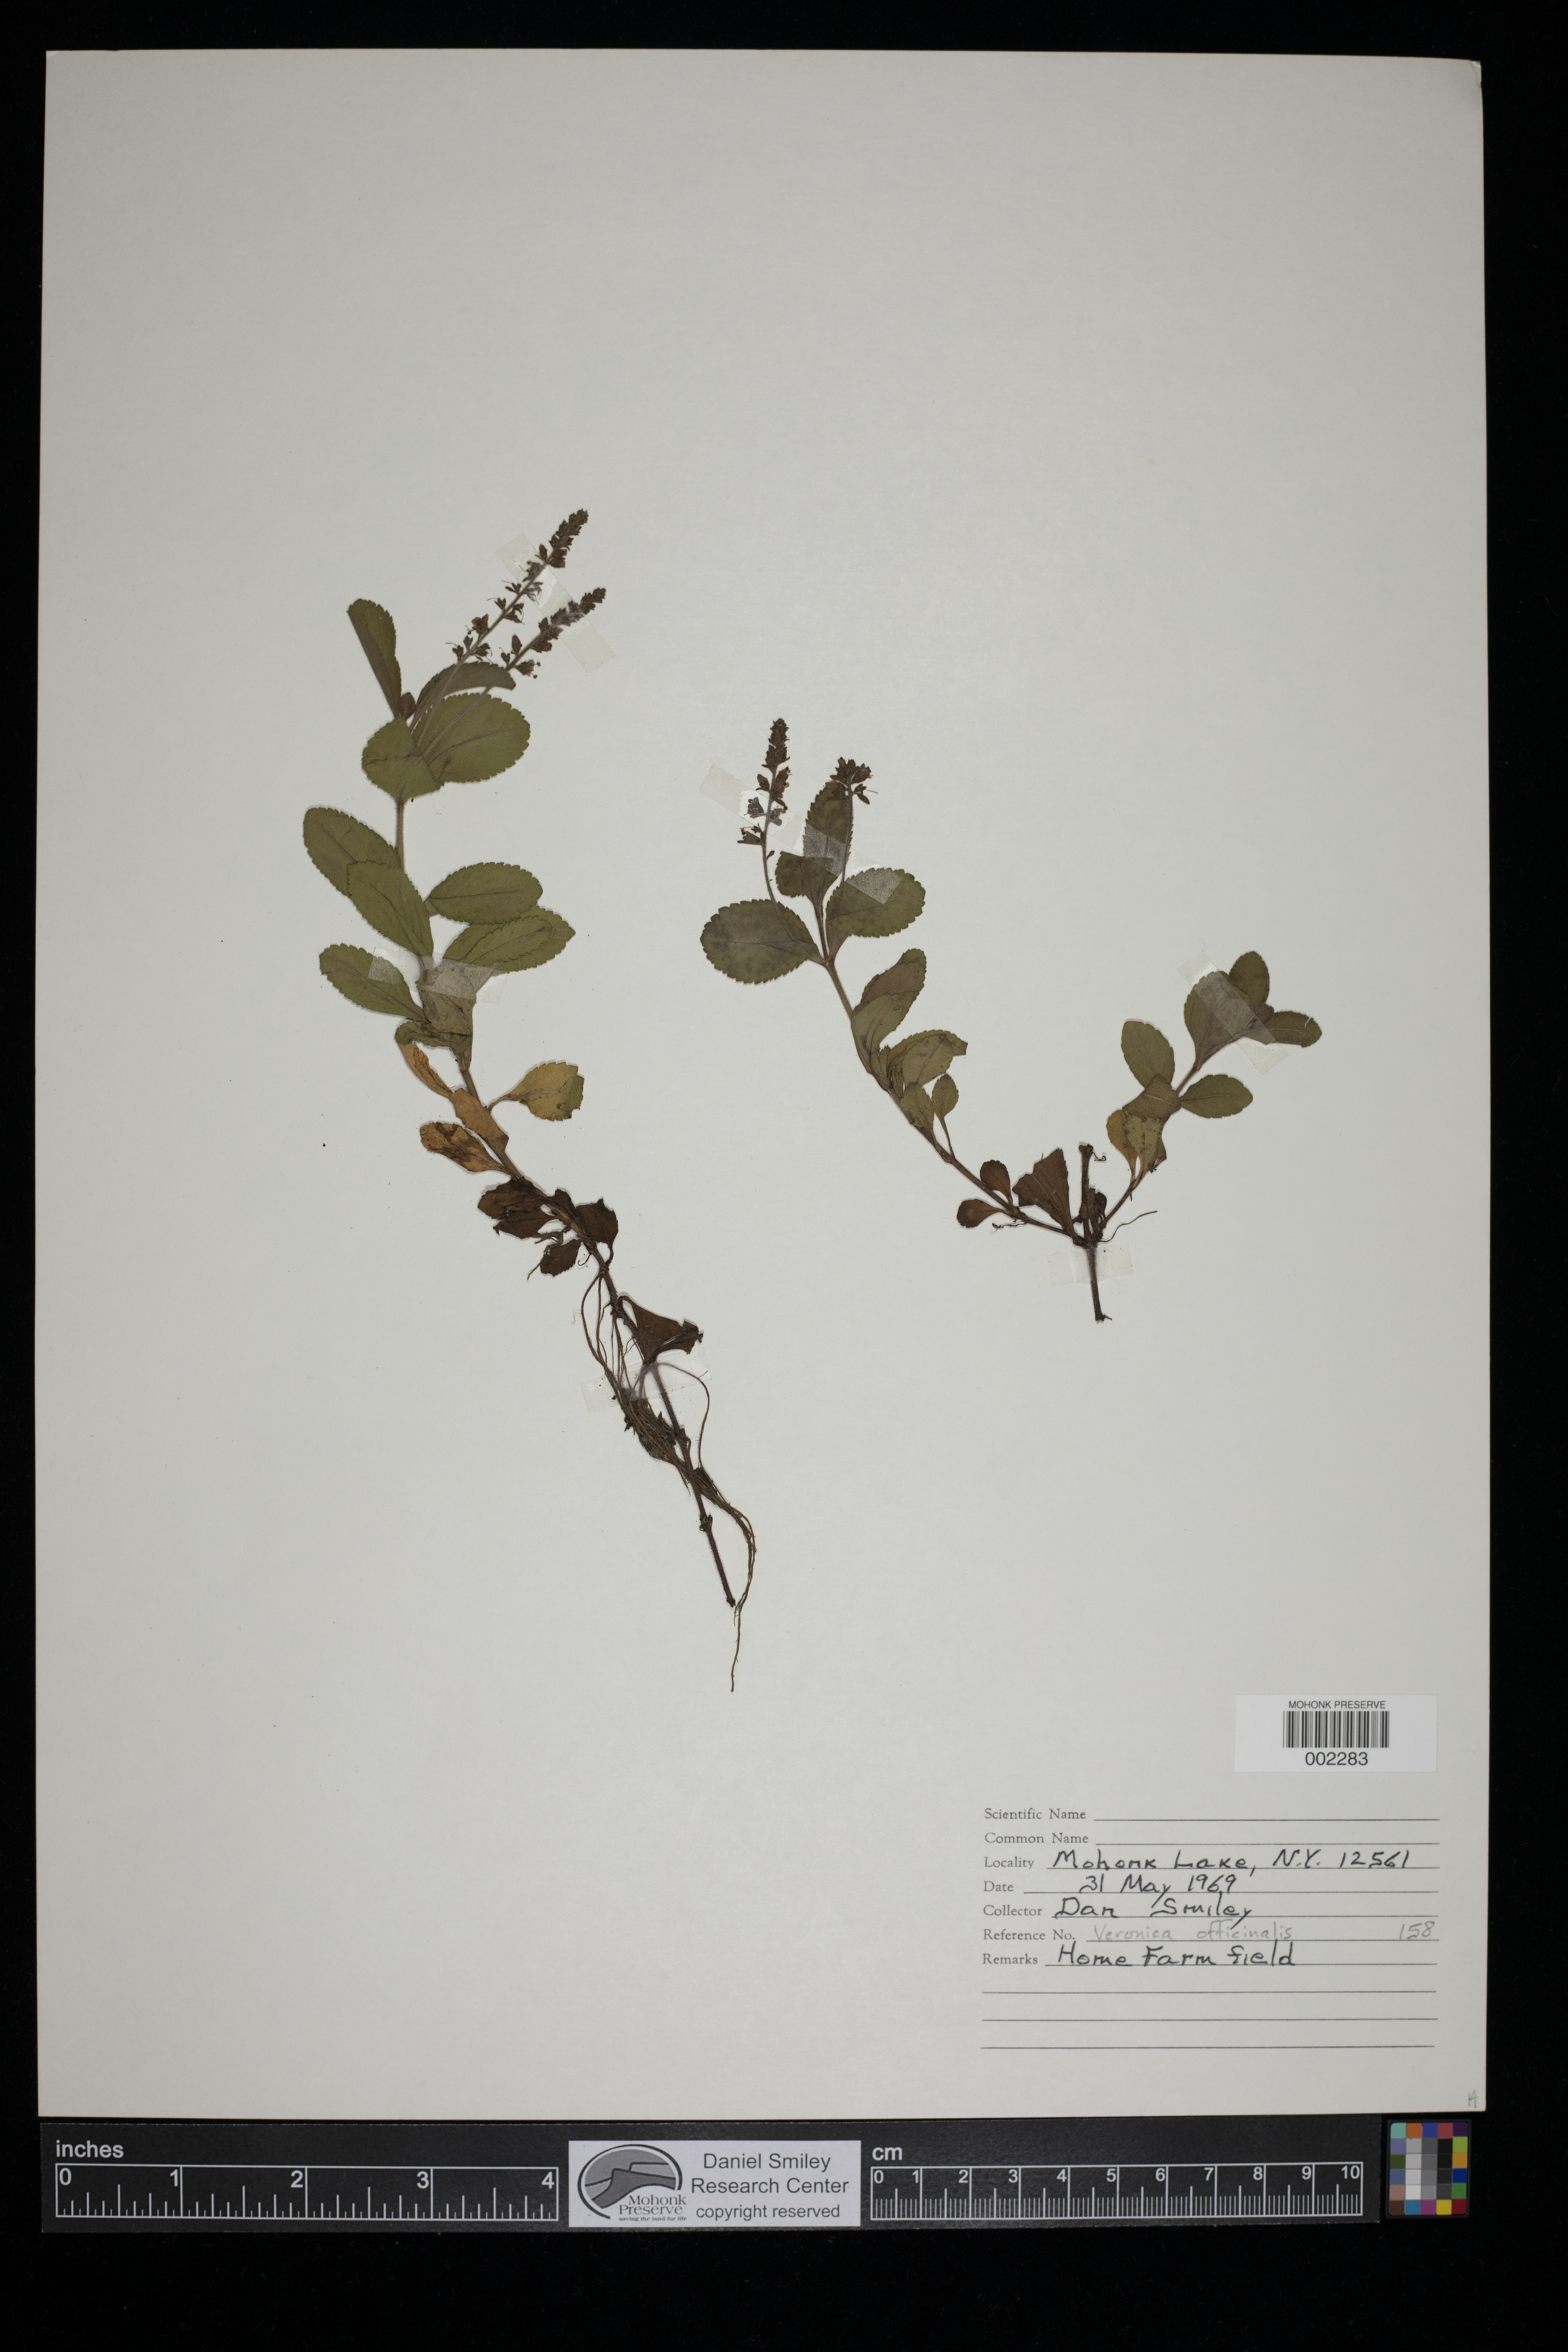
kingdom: Plantae
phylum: Tracheophyta
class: Magnoliopsida
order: Lamiales
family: Plantaginaceae
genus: Veronica
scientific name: Veronica officinalis
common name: Common speedwell
